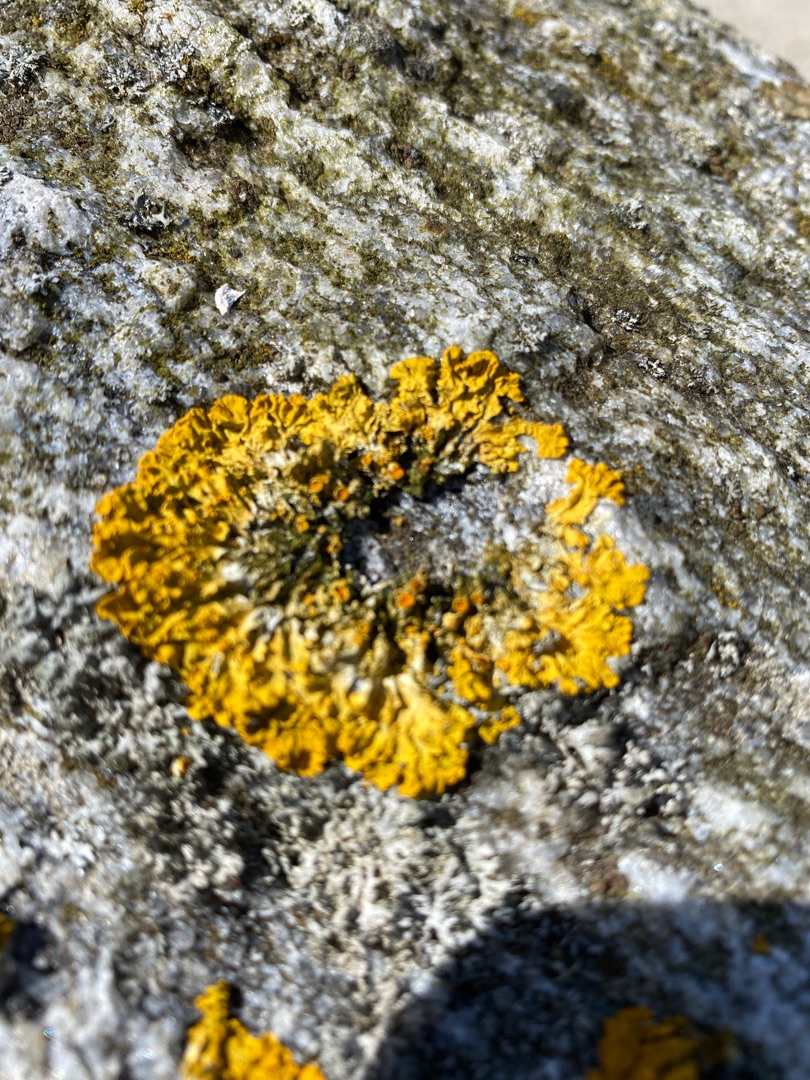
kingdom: Fungi
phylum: Ascomycota
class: Lecanoromycetes
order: Teloschistales
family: Teloschistaceae
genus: Xanthoria
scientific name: Xanthoria parietina
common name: Almindelig væggelav
